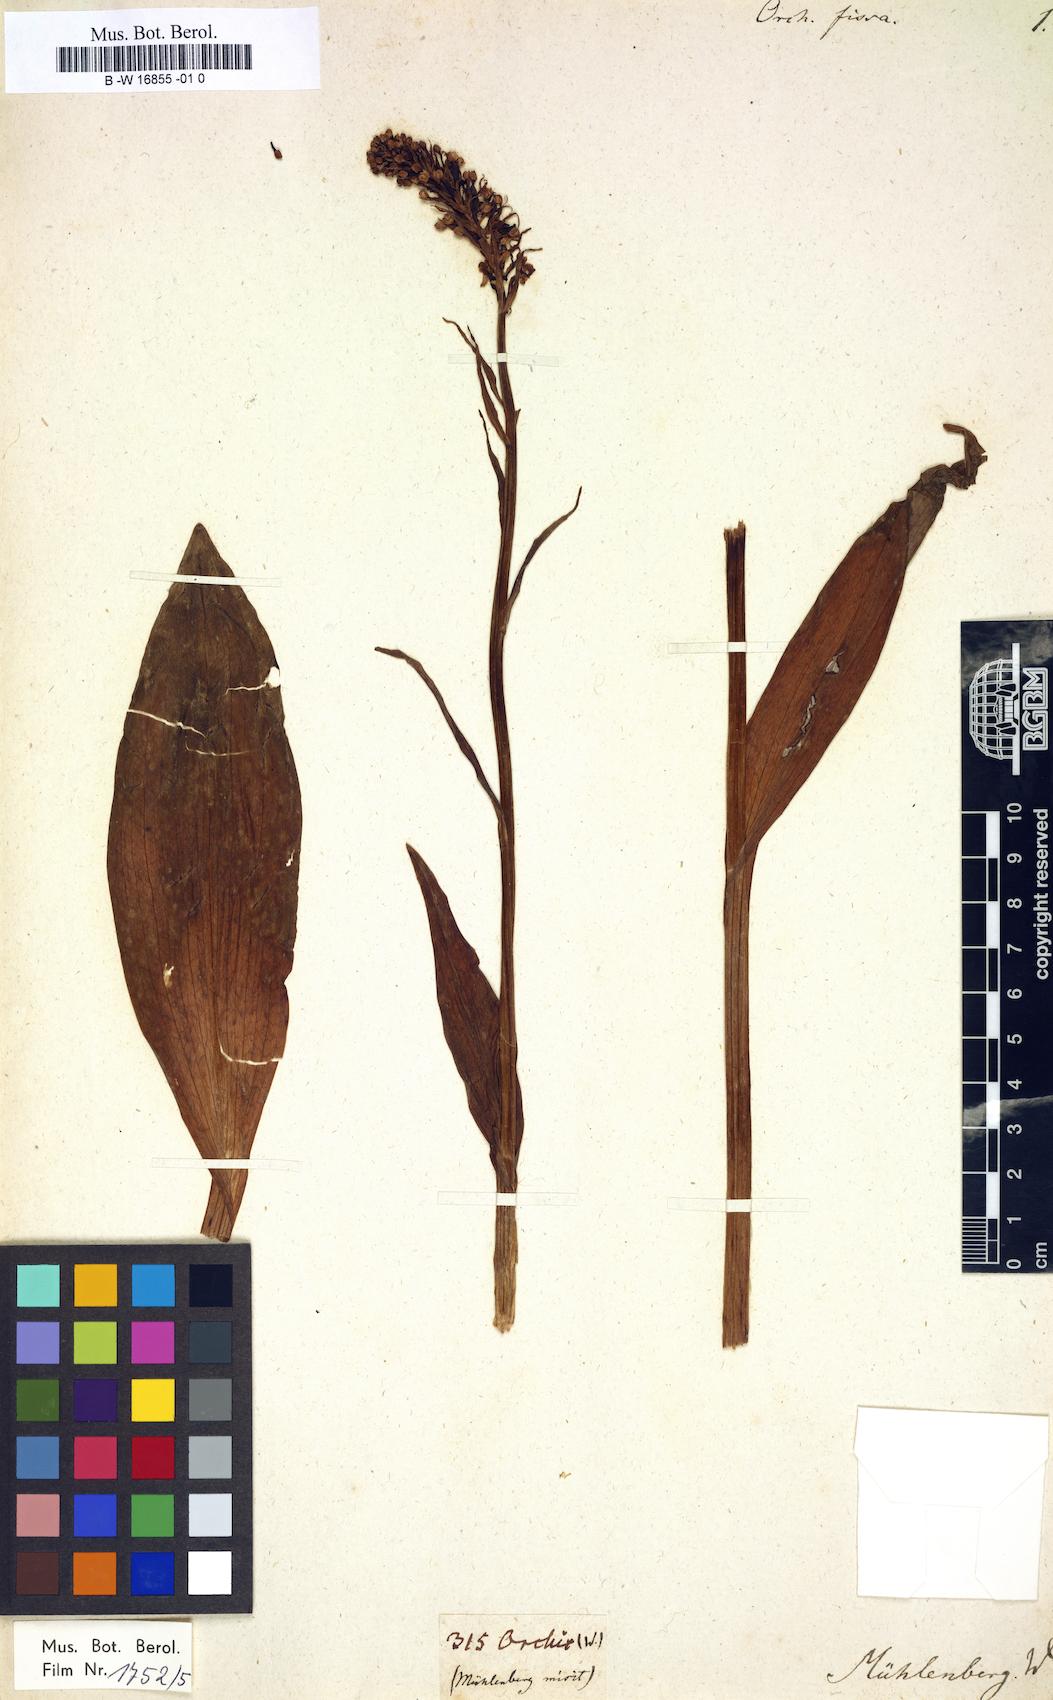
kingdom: Plantae
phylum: Tracheophyta
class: Liliopsida
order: Asparagales
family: Orchidaceae
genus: Platanthera
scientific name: Platanthera psycodes
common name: Lesser purple fringed orchid
